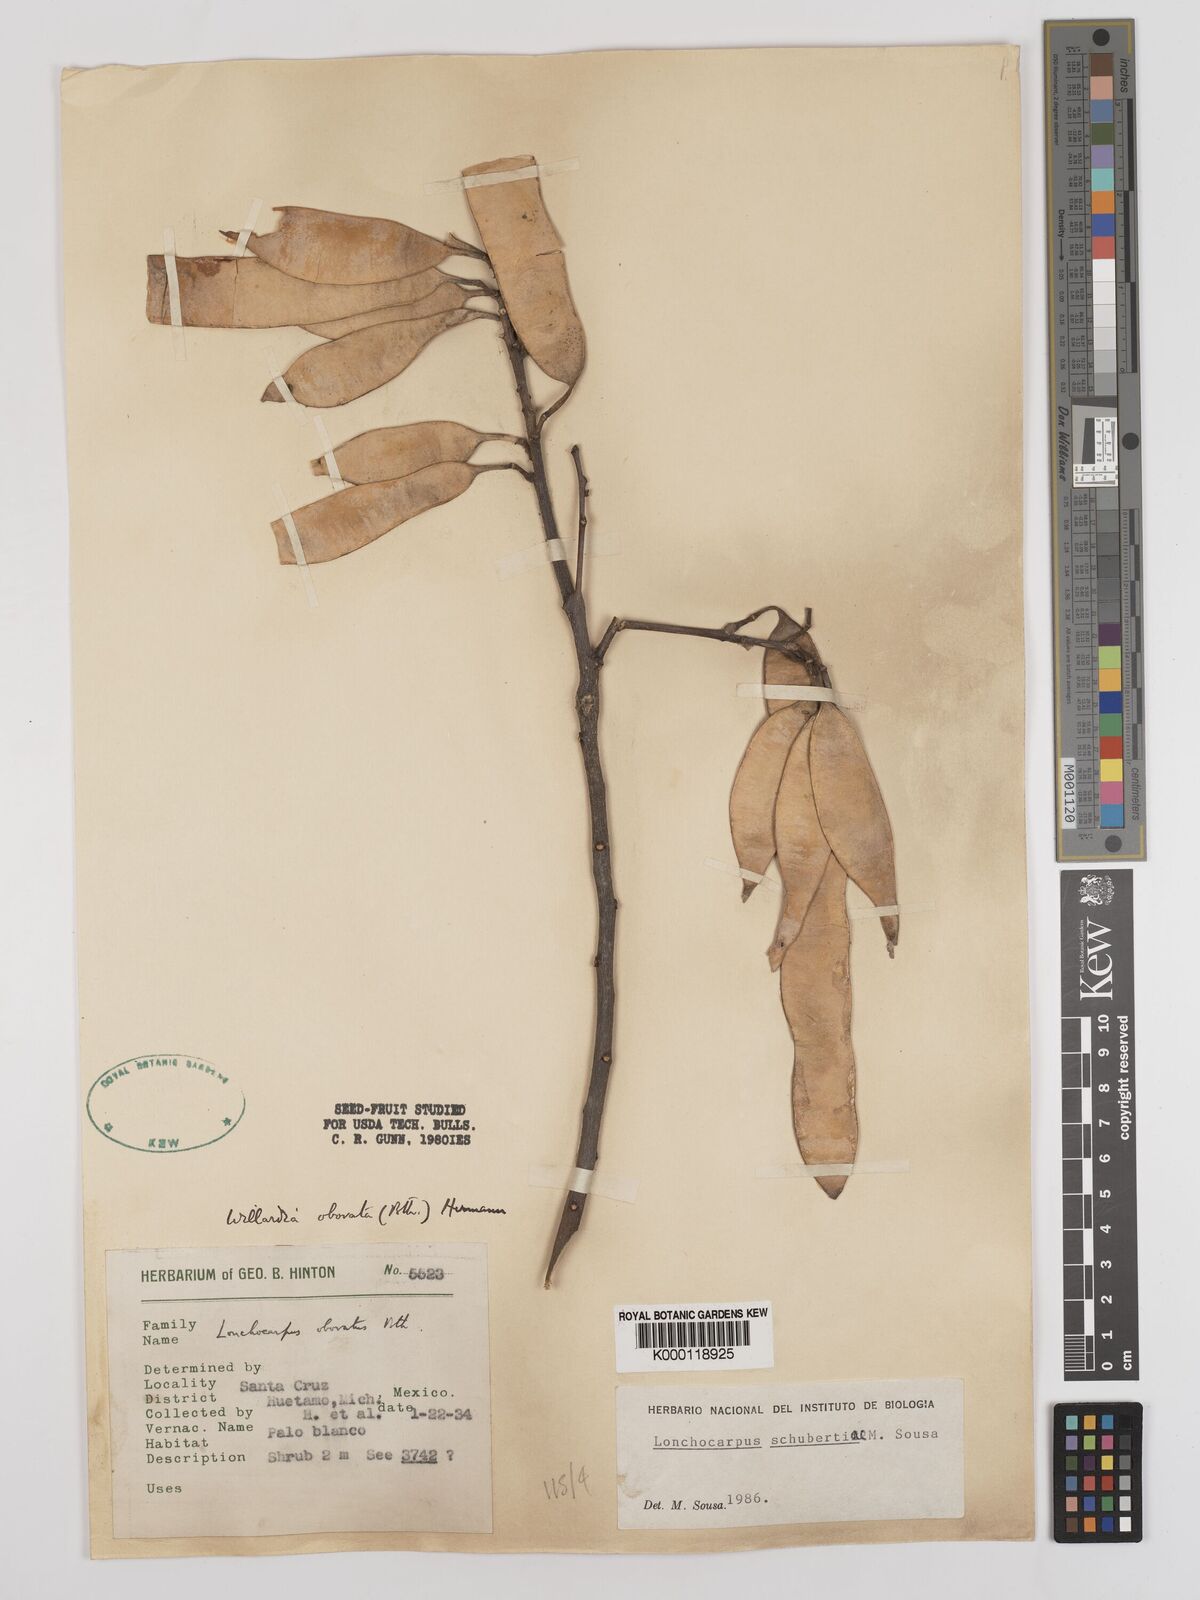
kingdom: Plantae
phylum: Tracheophyta
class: Magnoliopsida
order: Fabales
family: Fabaceae
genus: Lonchocarpus
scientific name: Lonchocarpus schubertiae
